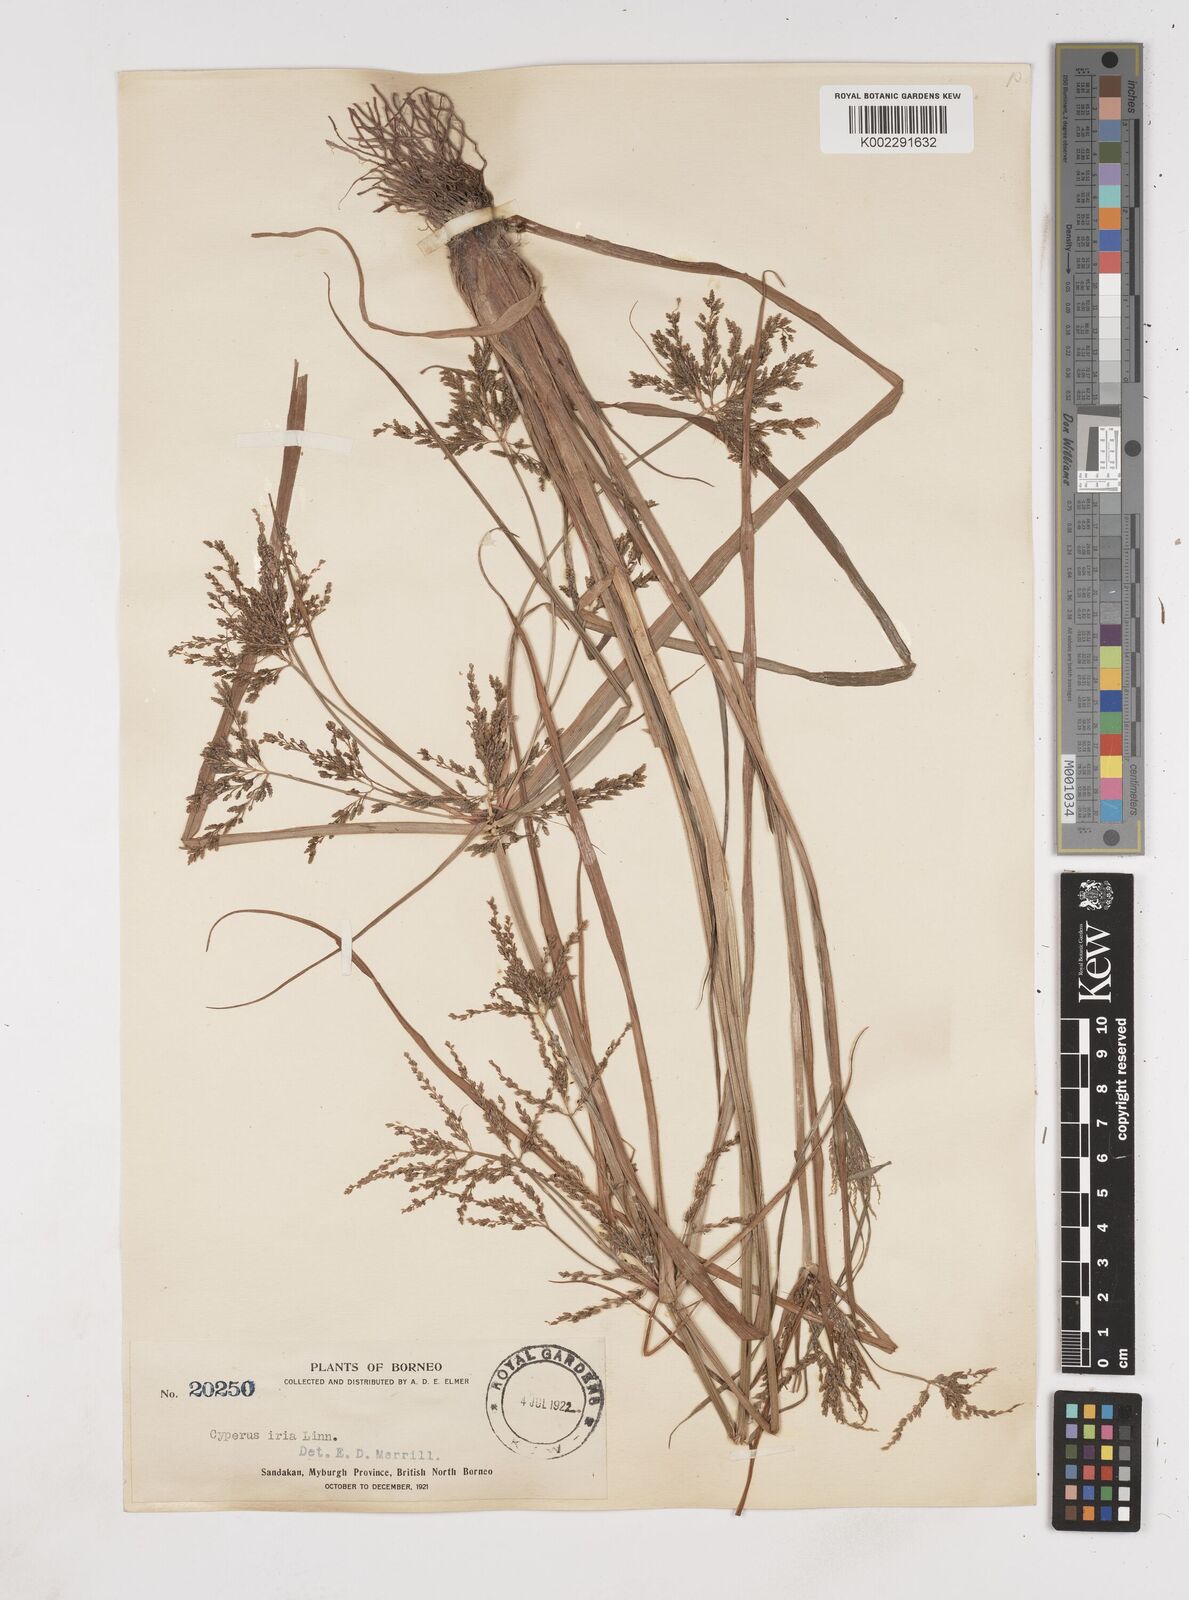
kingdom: Plantae
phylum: Tracheophyta
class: Liliopsida
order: Poales
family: Cyperaceae
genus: Cyperus
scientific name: Cyperus iria
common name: Ricefield flatsedge
